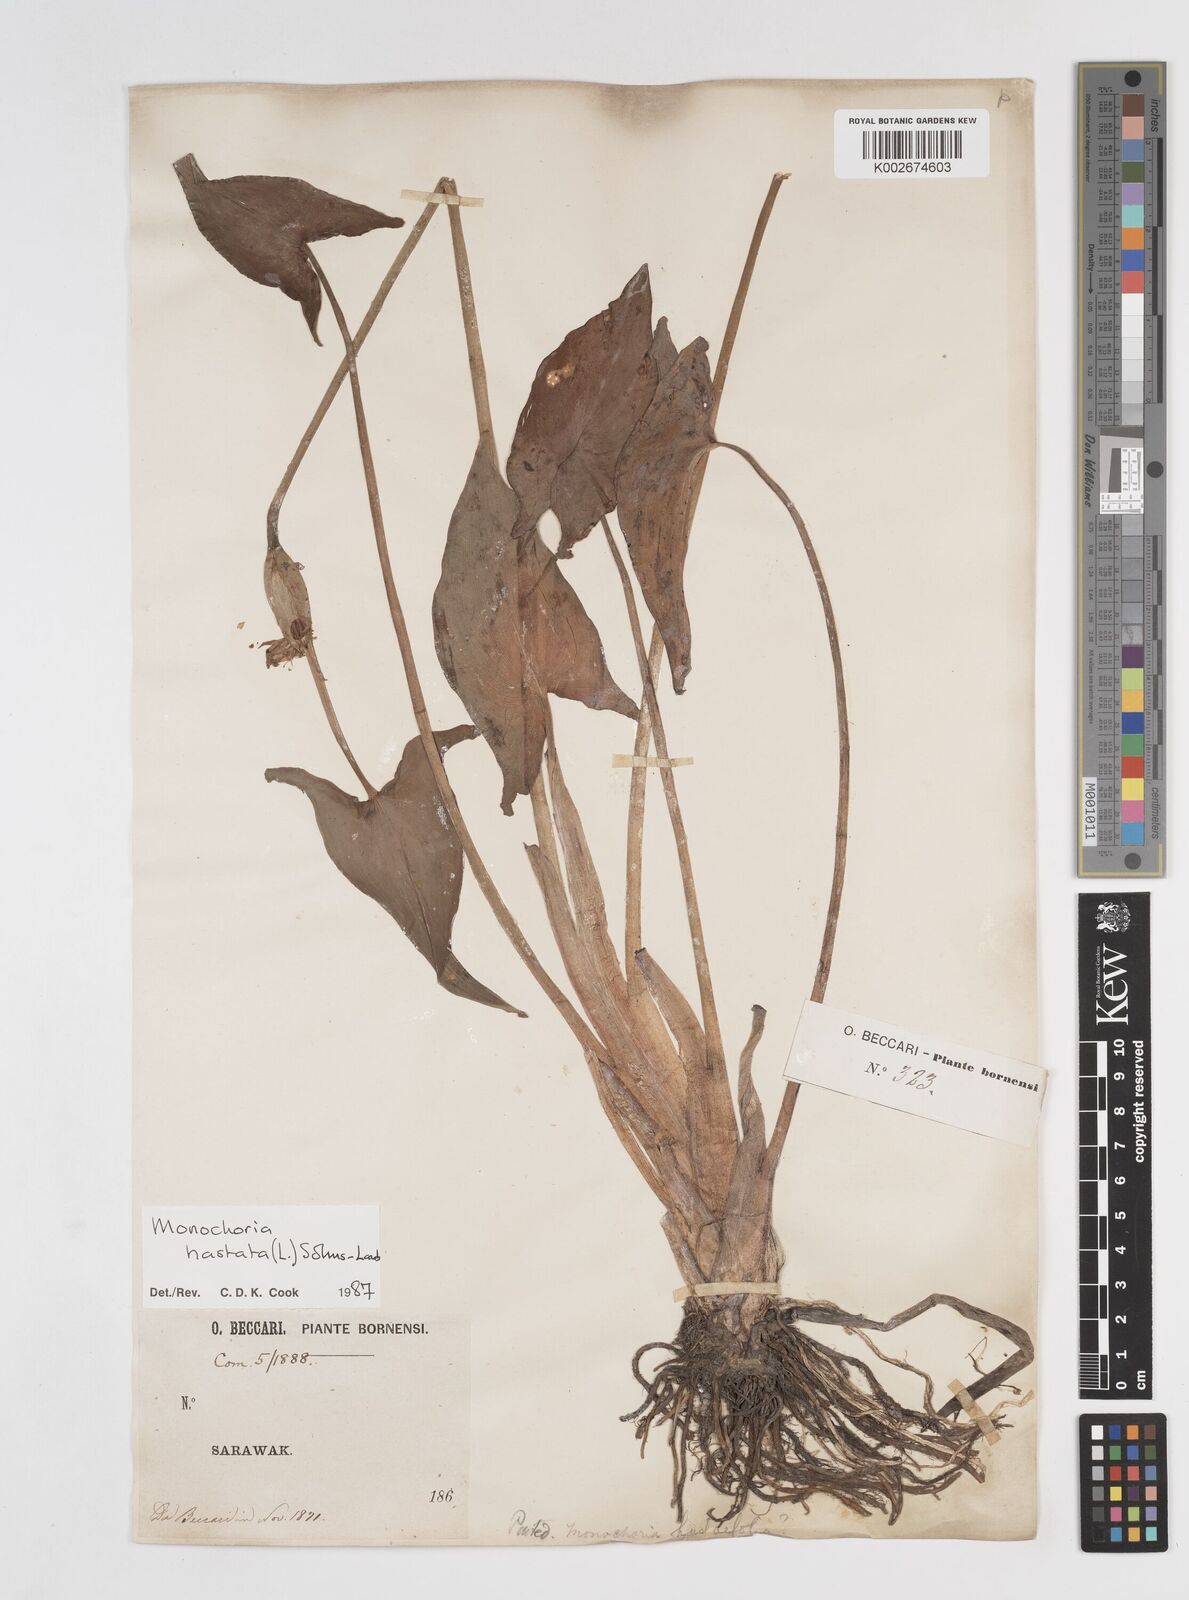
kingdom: Plantae
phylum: Tracheophyta
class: Liliopsida
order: Commelinales
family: Pontederiaceae
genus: Pontederia
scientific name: Pontederia hastata
